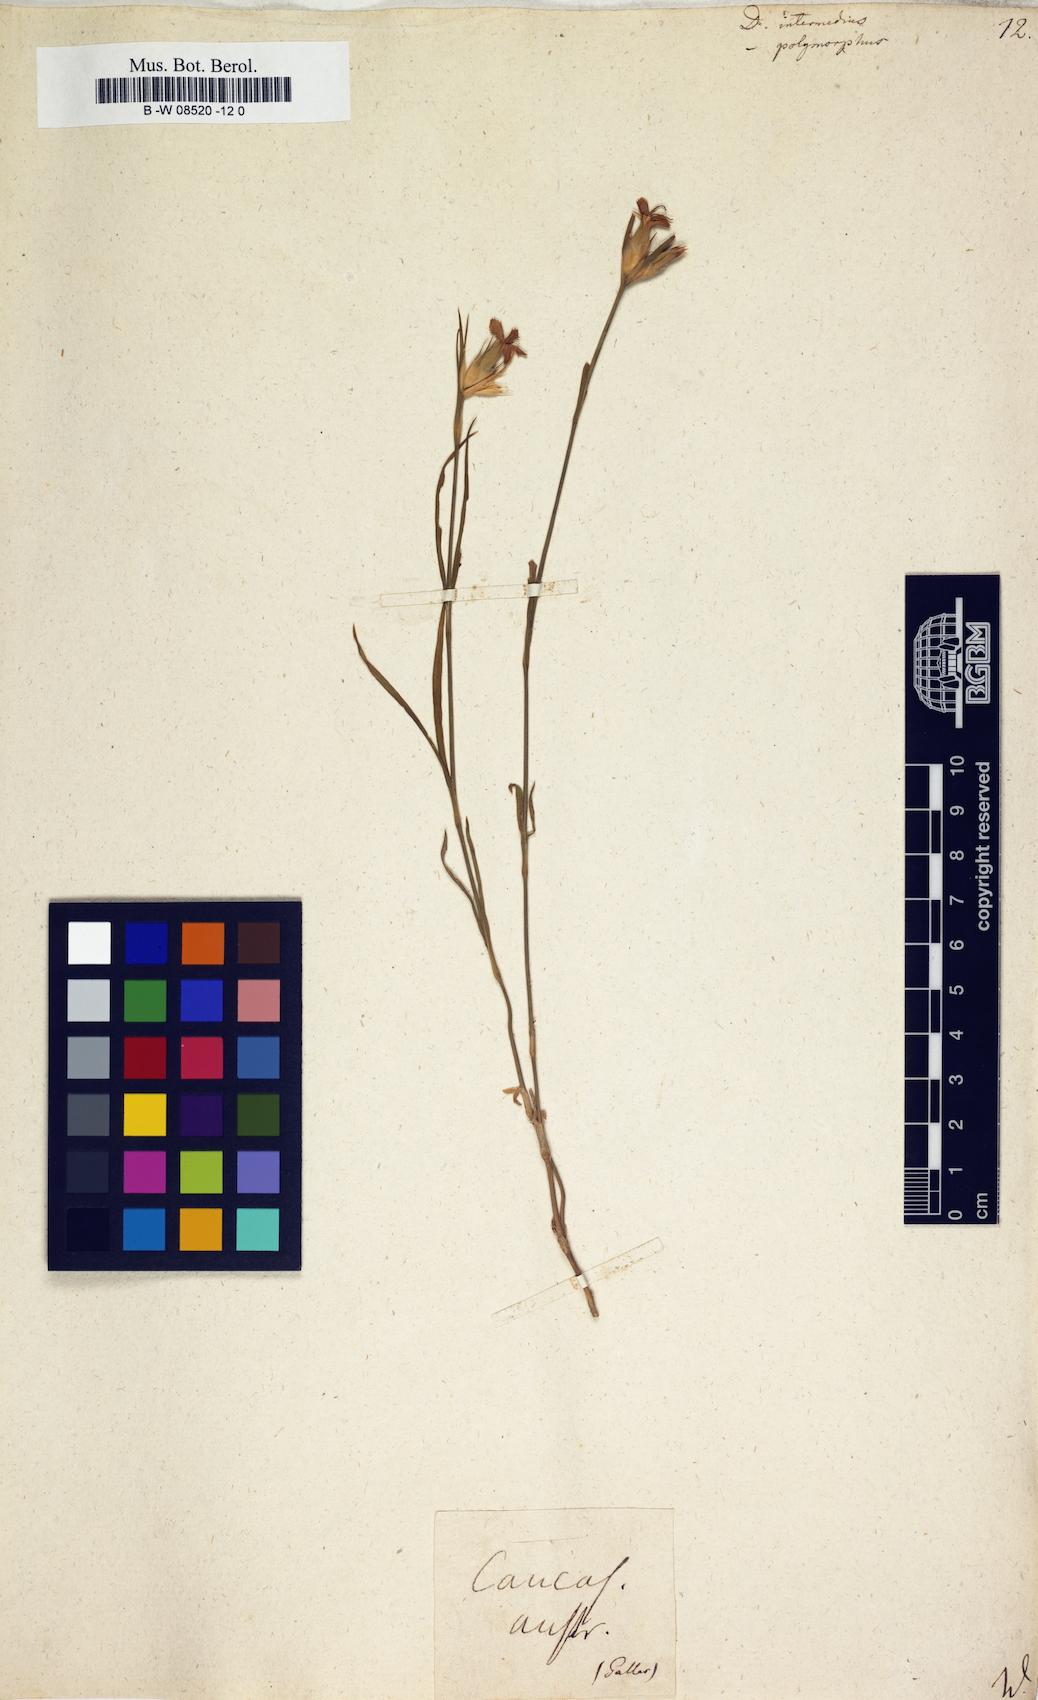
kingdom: Plantae
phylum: Tracheophyta
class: Magnoliopsida
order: Caryophyllales
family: Caryophyllaceae
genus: Dianthus
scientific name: Dianthus
